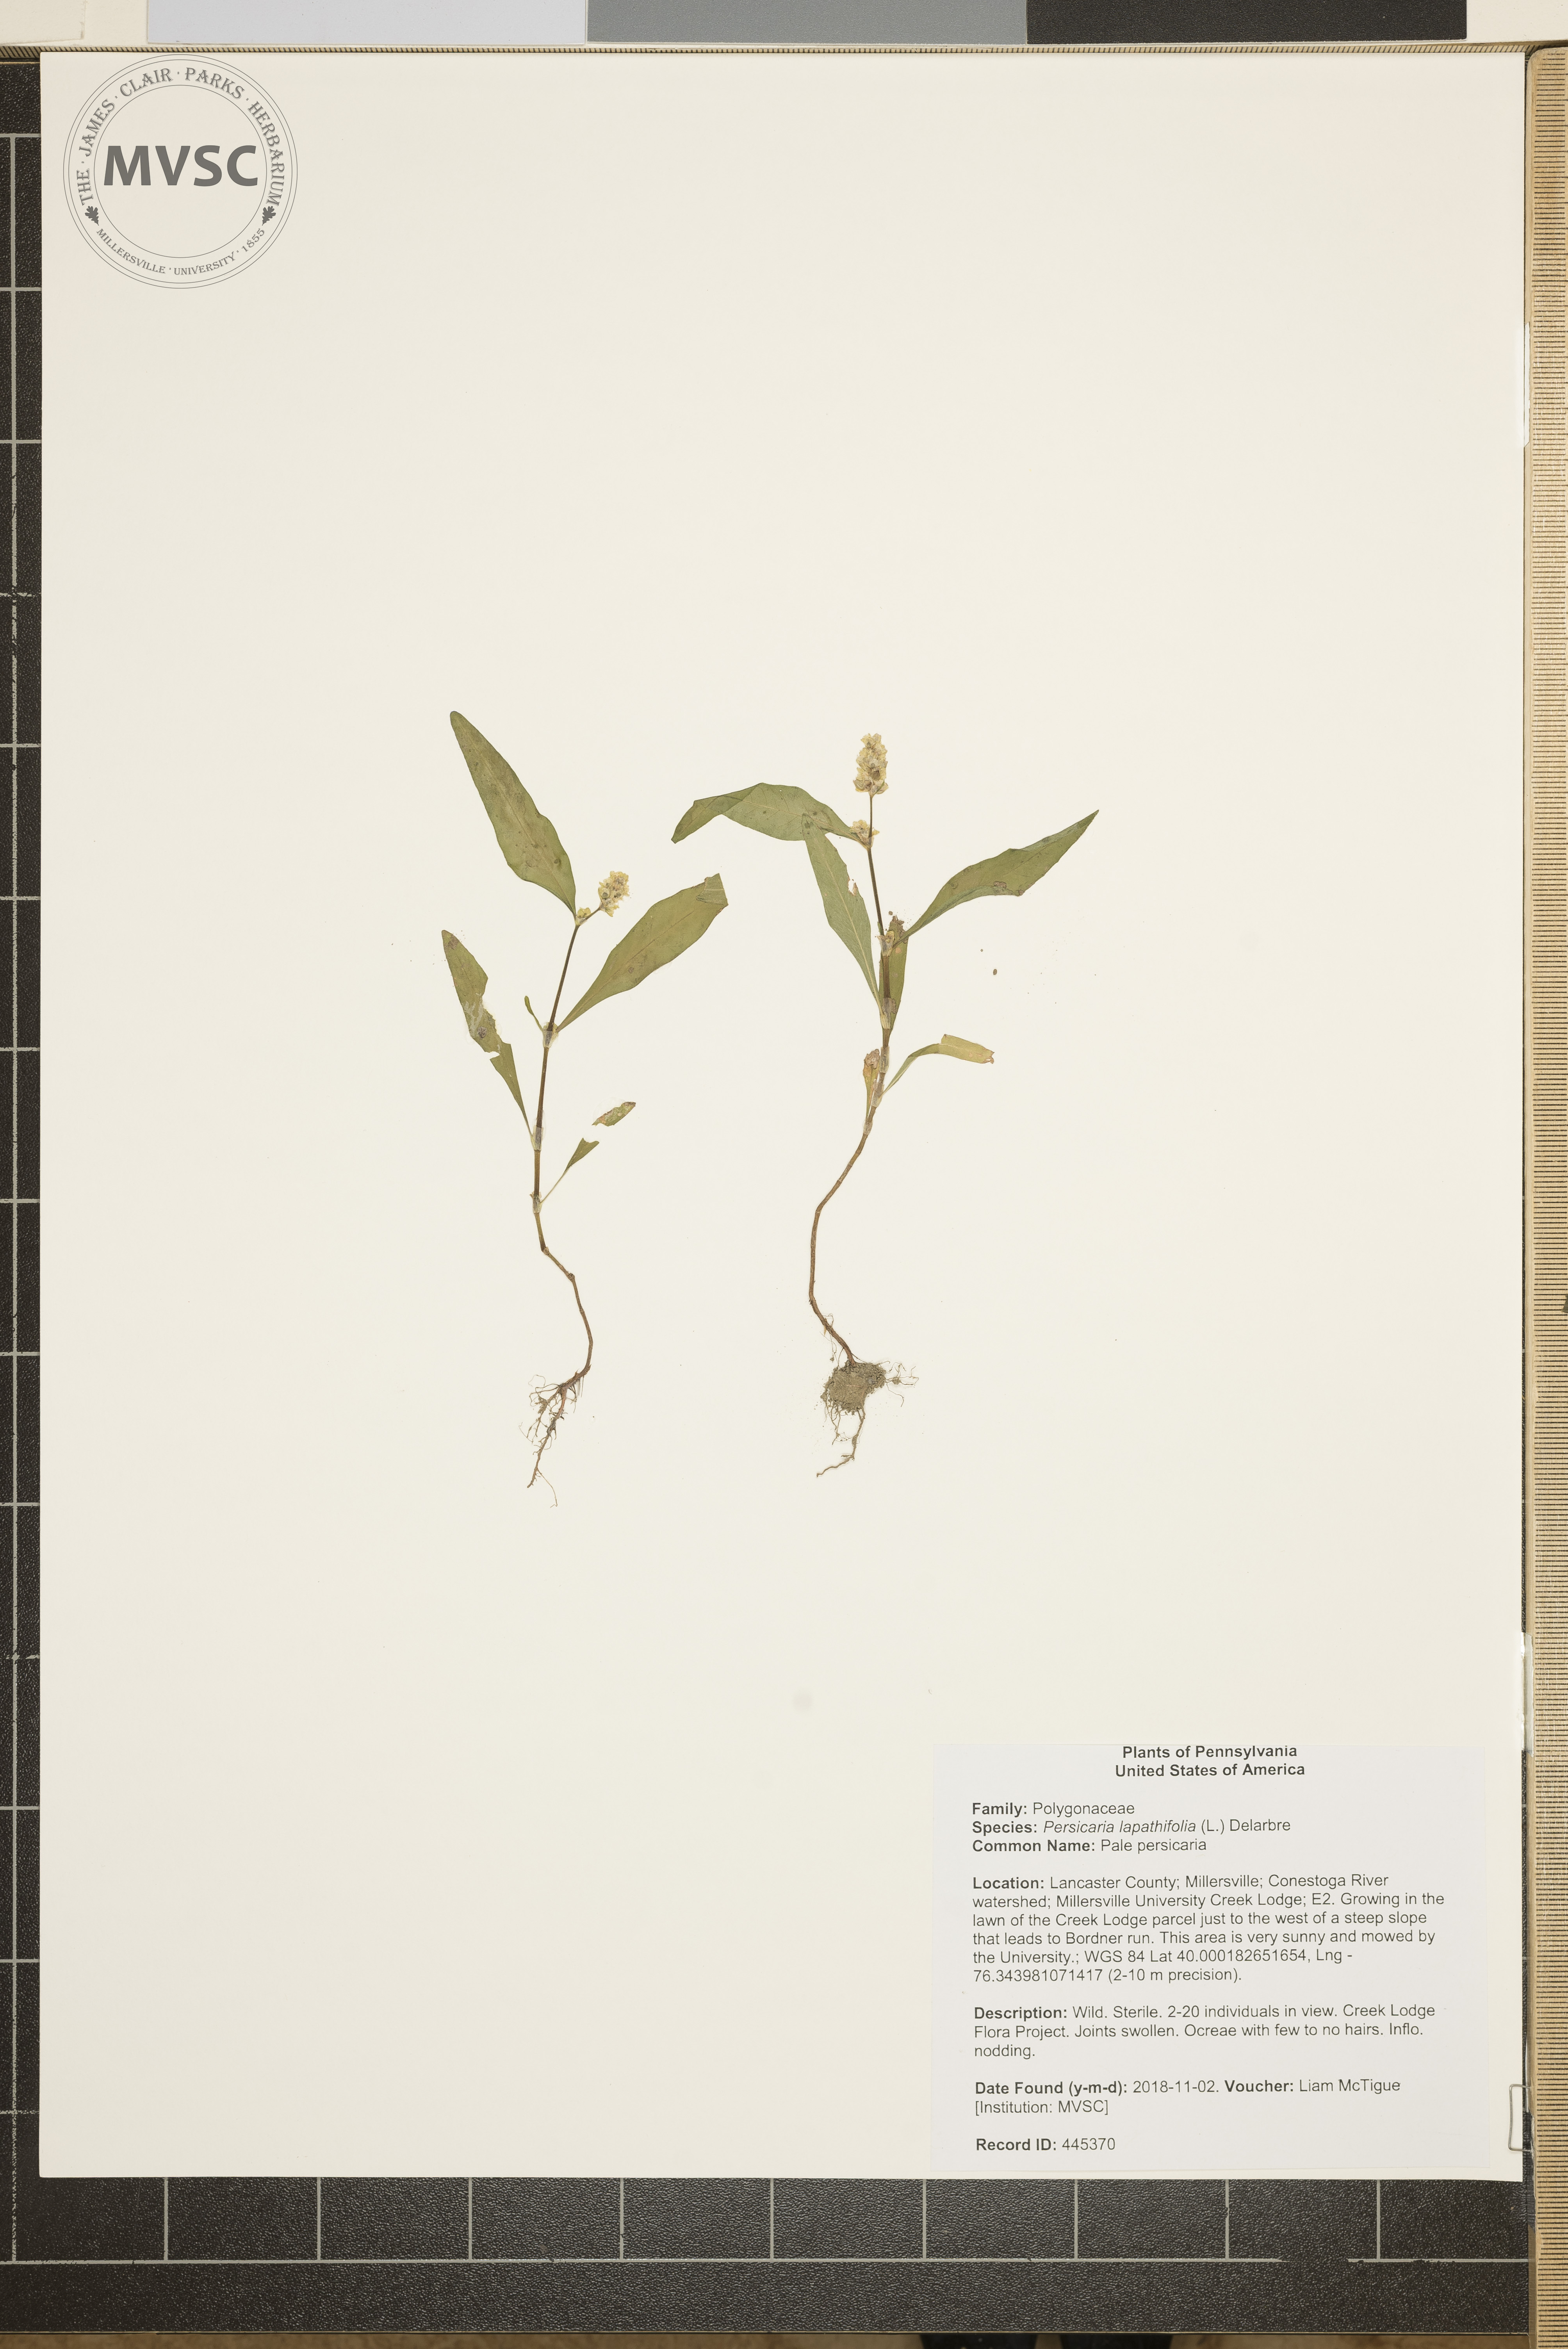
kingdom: Plantae
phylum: Tracheophyta
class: Magnoliopsida
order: Caryophyllales
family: Polygonaceae
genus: Persicaria
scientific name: Persicaria lapathifolia
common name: Pale persicaria
